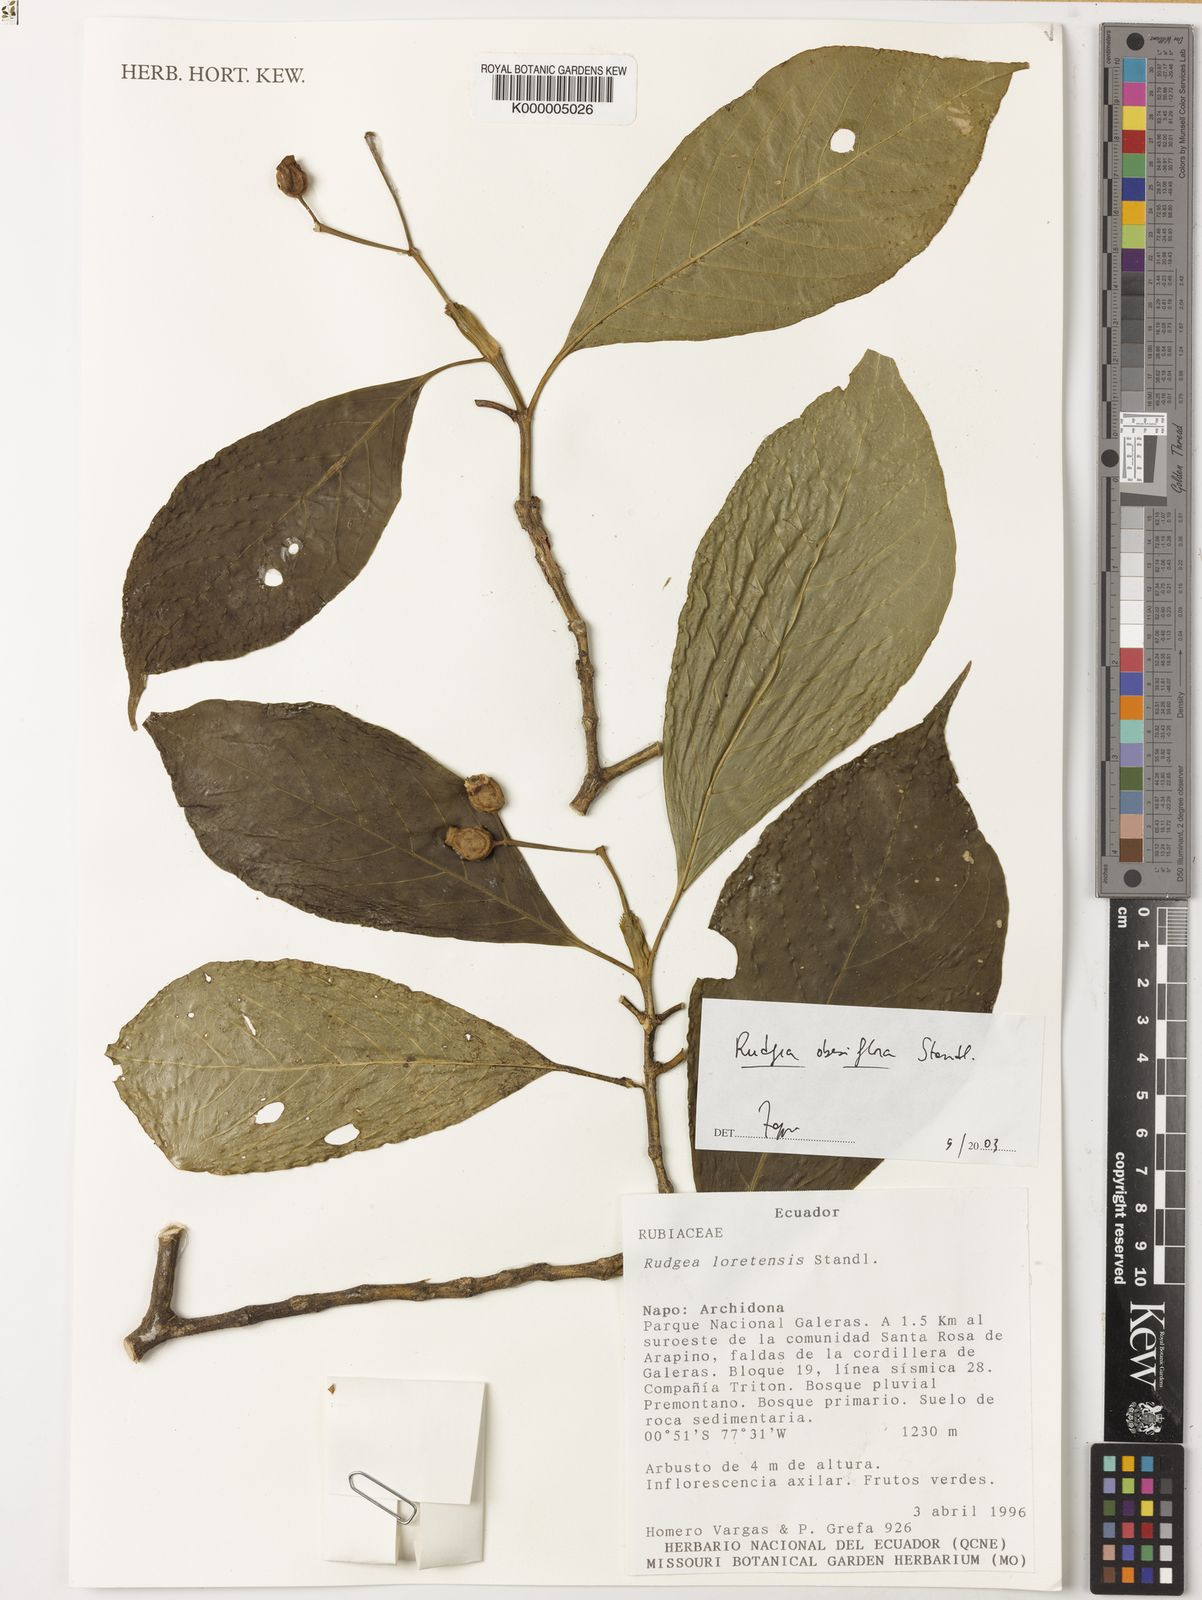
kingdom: Plantae
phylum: Tracheophyta
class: Magnoliopsida
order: Gentianales
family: Rubiaceae
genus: Rudgea
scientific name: Rudgea obesiflora
